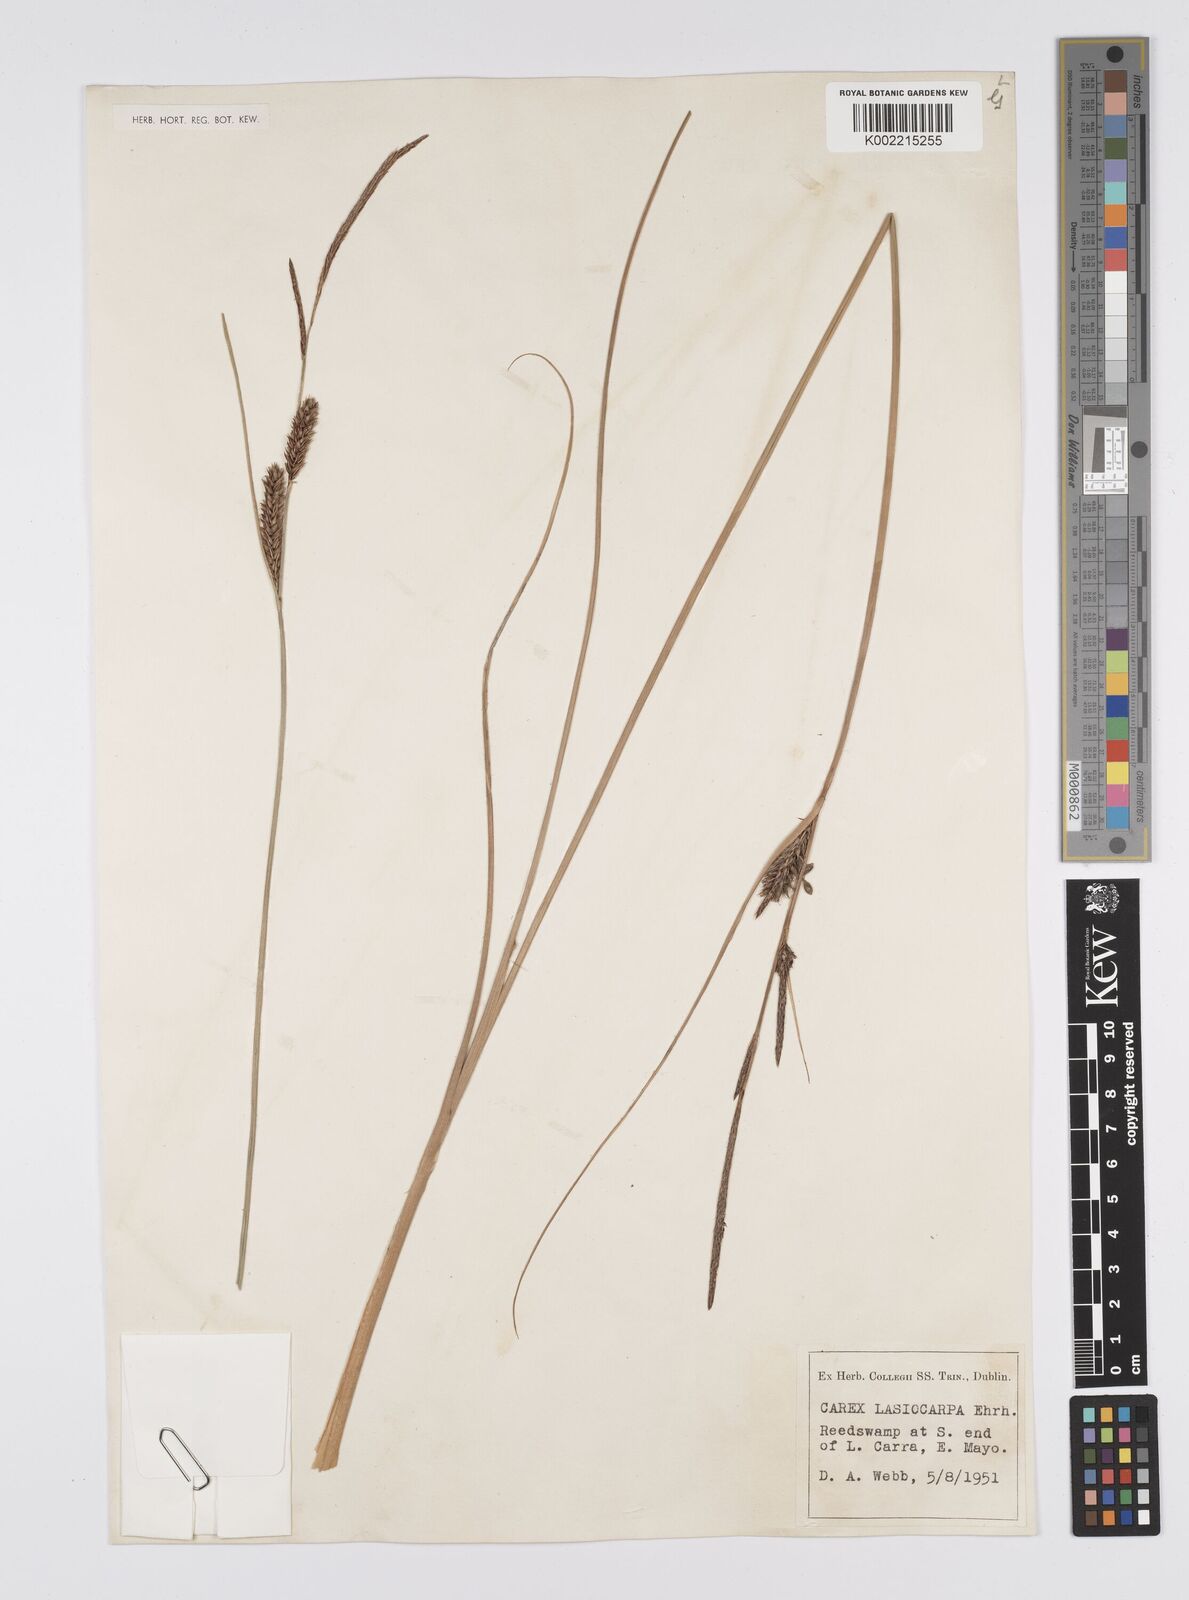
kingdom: Plantae
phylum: Tracheophyta
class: Liliopsida
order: Poales
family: Cyperaceae
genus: Carex
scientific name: Carex lasiocarpa
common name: Slender sedge
